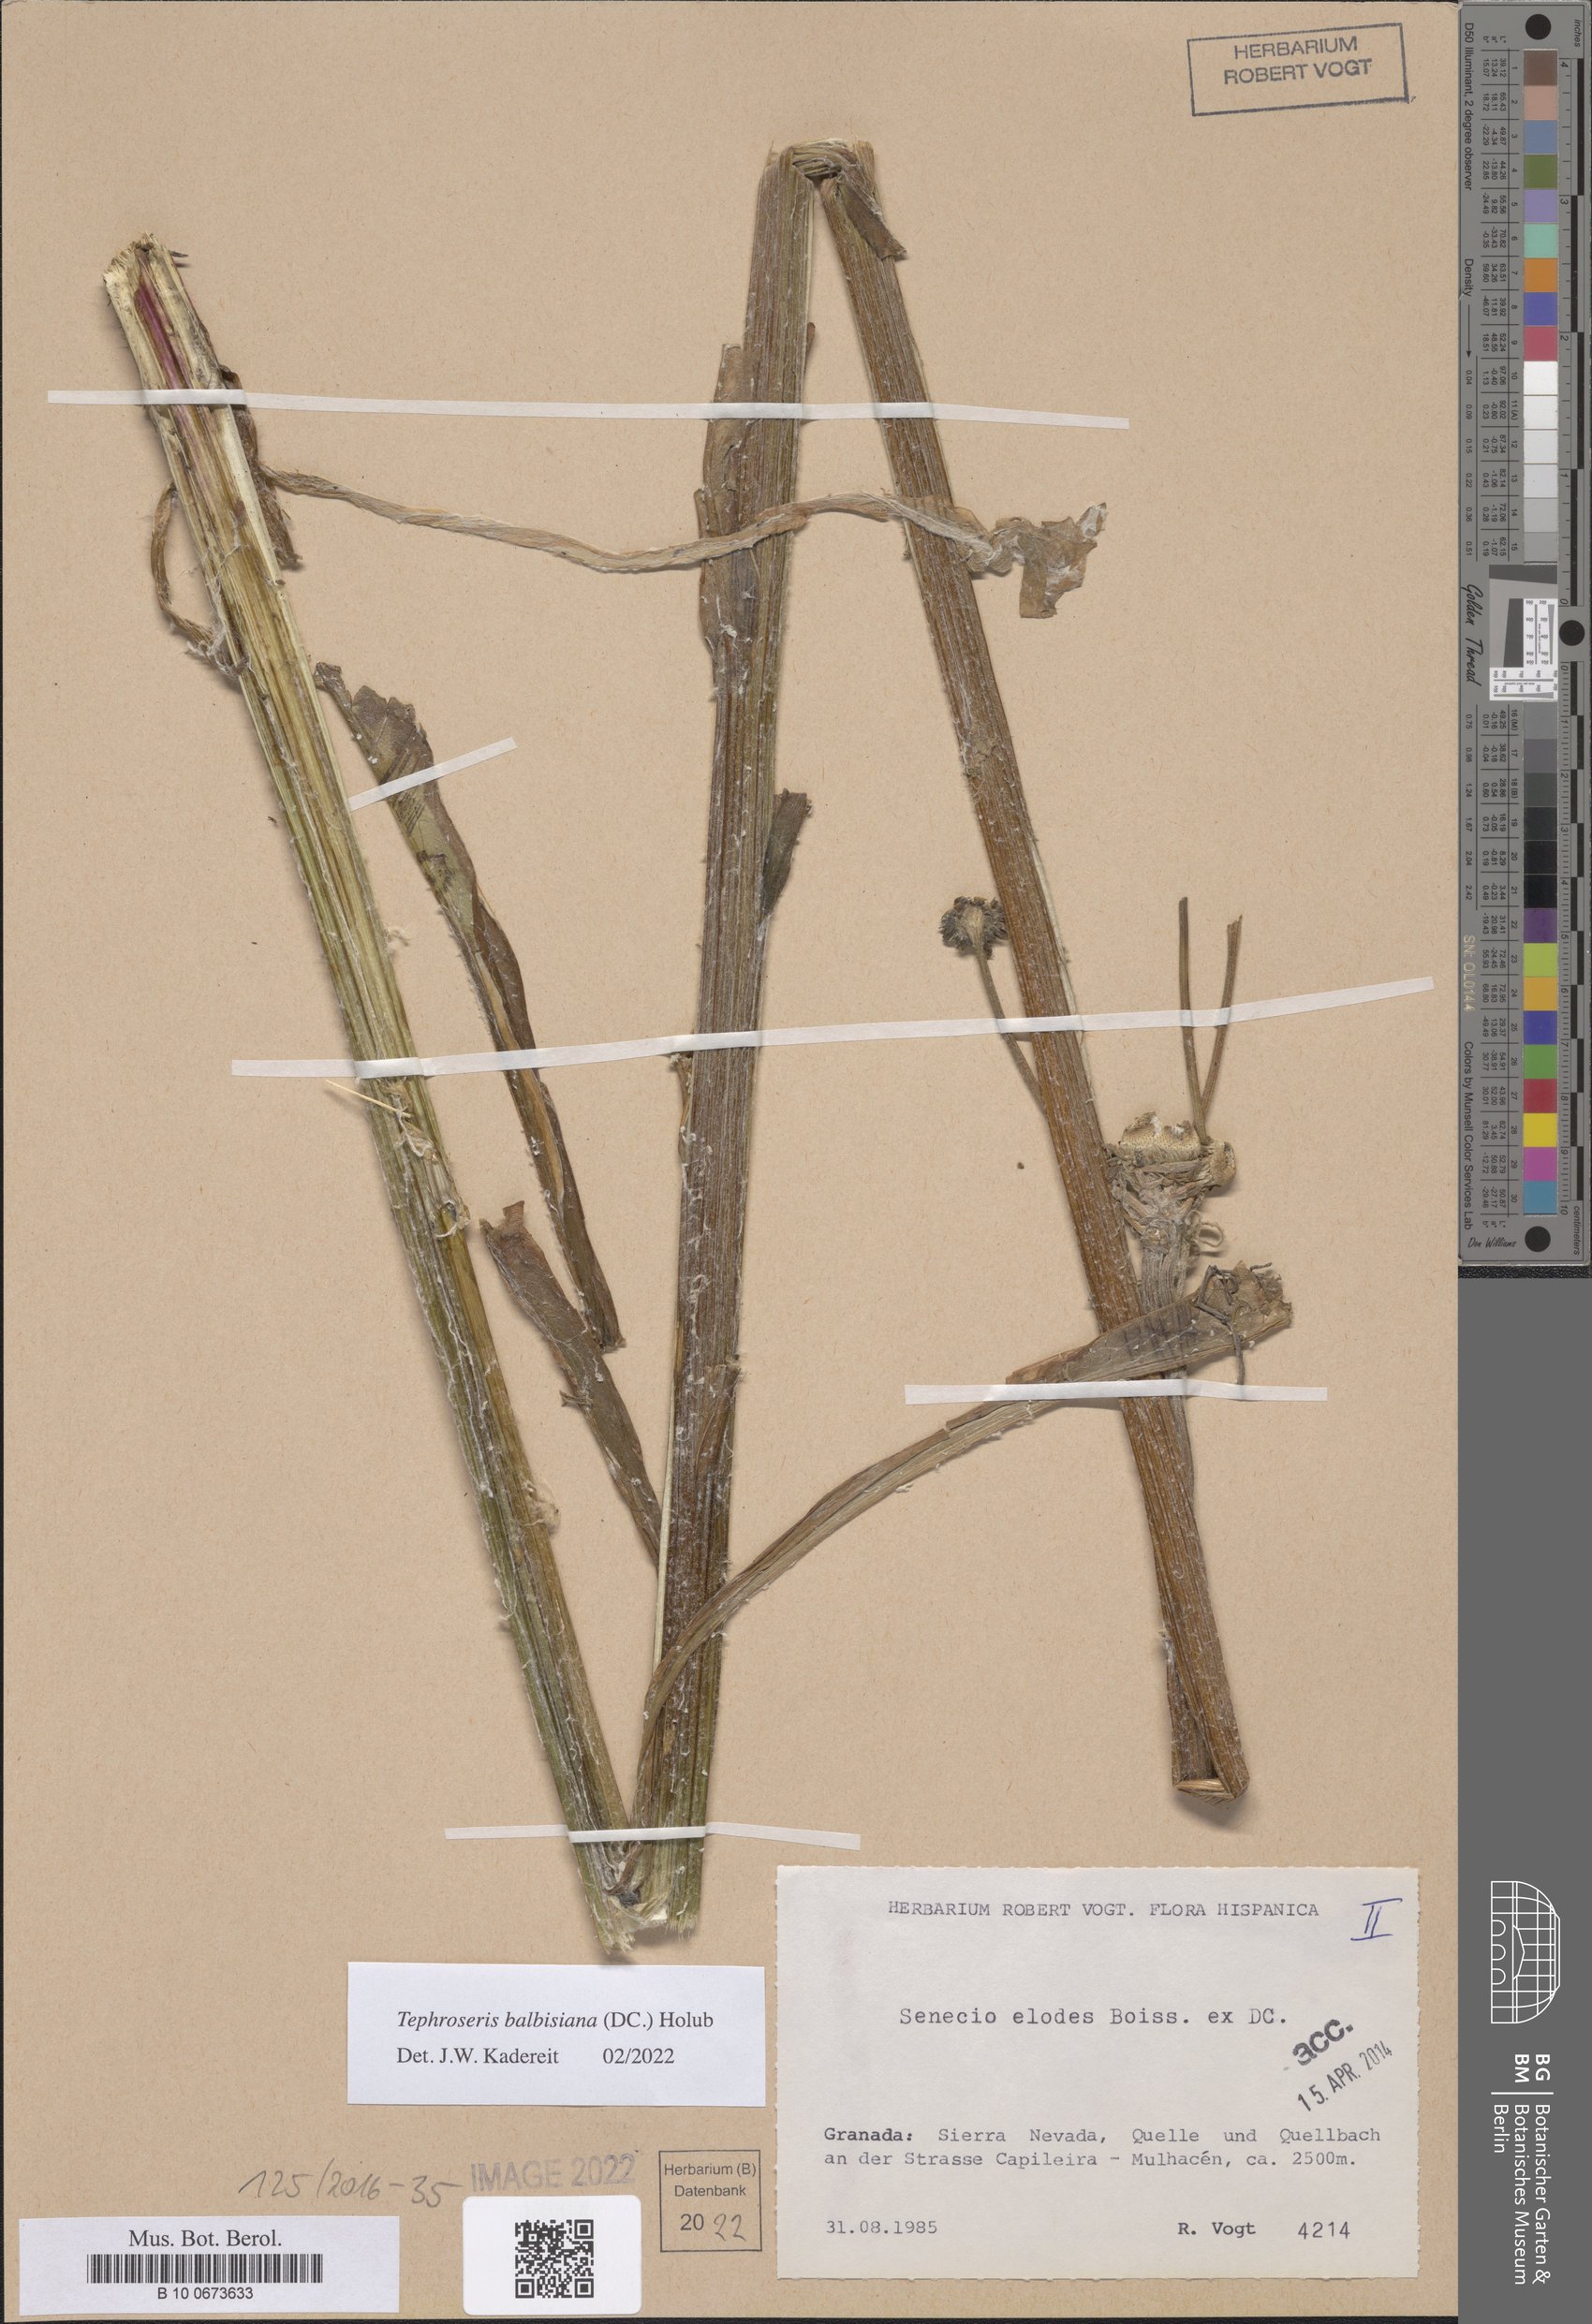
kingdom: Plantae
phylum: Tracheophyta
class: Magnoliopsida
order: Asterales
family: Asteraceae
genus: Tephroseris
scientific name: Tephroseris balbisiana
